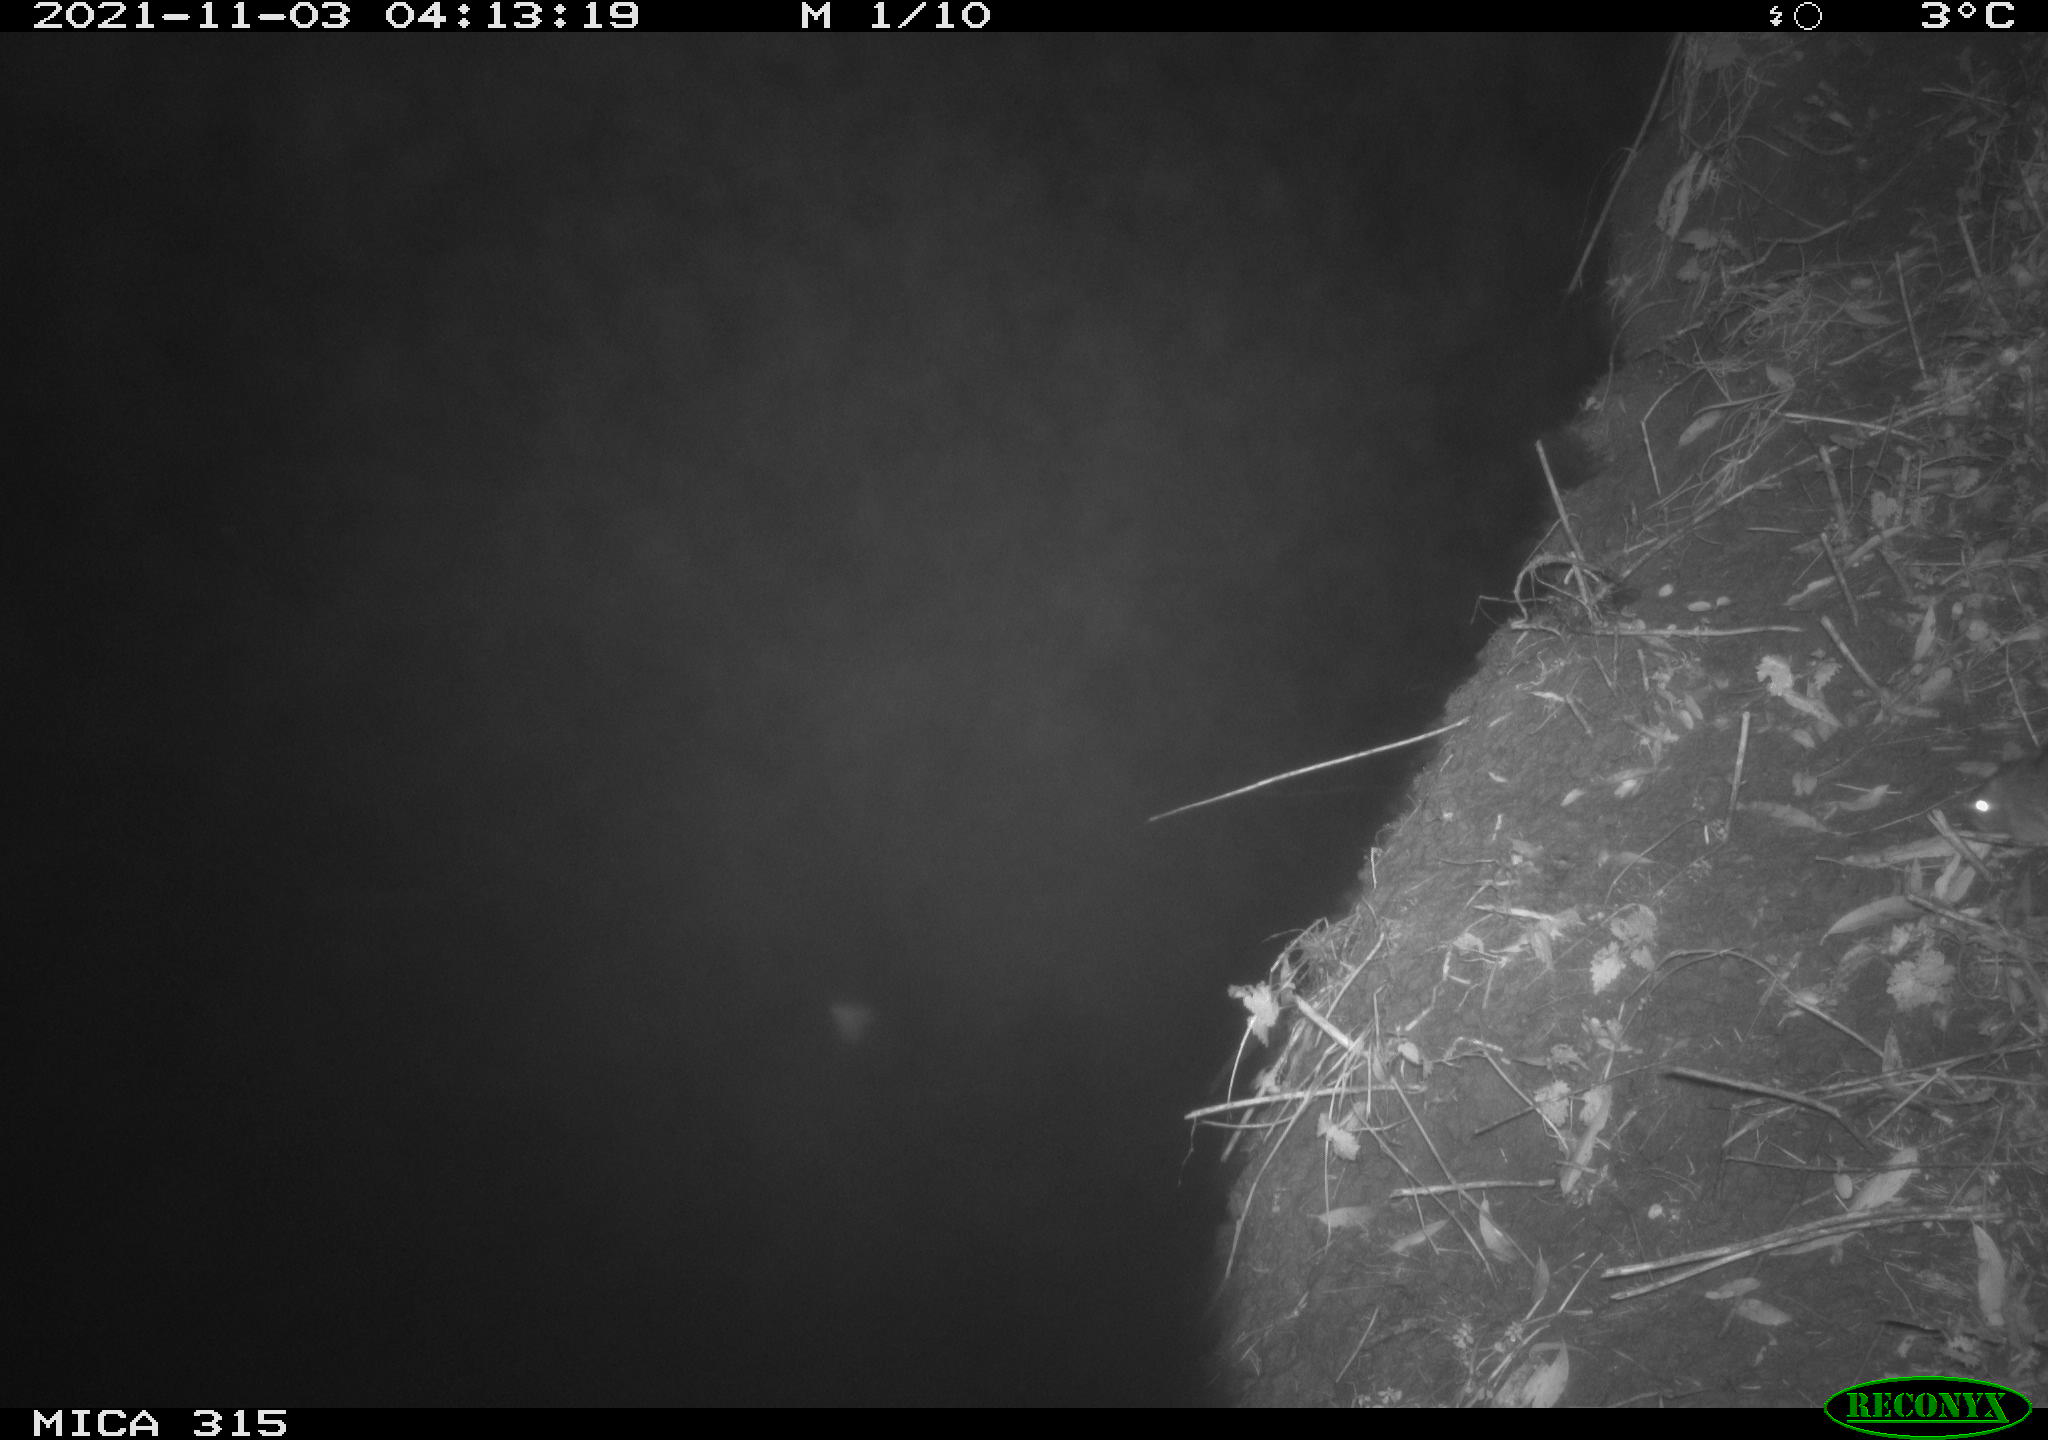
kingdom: Animalia
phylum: Chordata
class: Mammalia
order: Rodentia
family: Muridae
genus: Rattus
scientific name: Rattus norvegicus
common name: Brown rat
